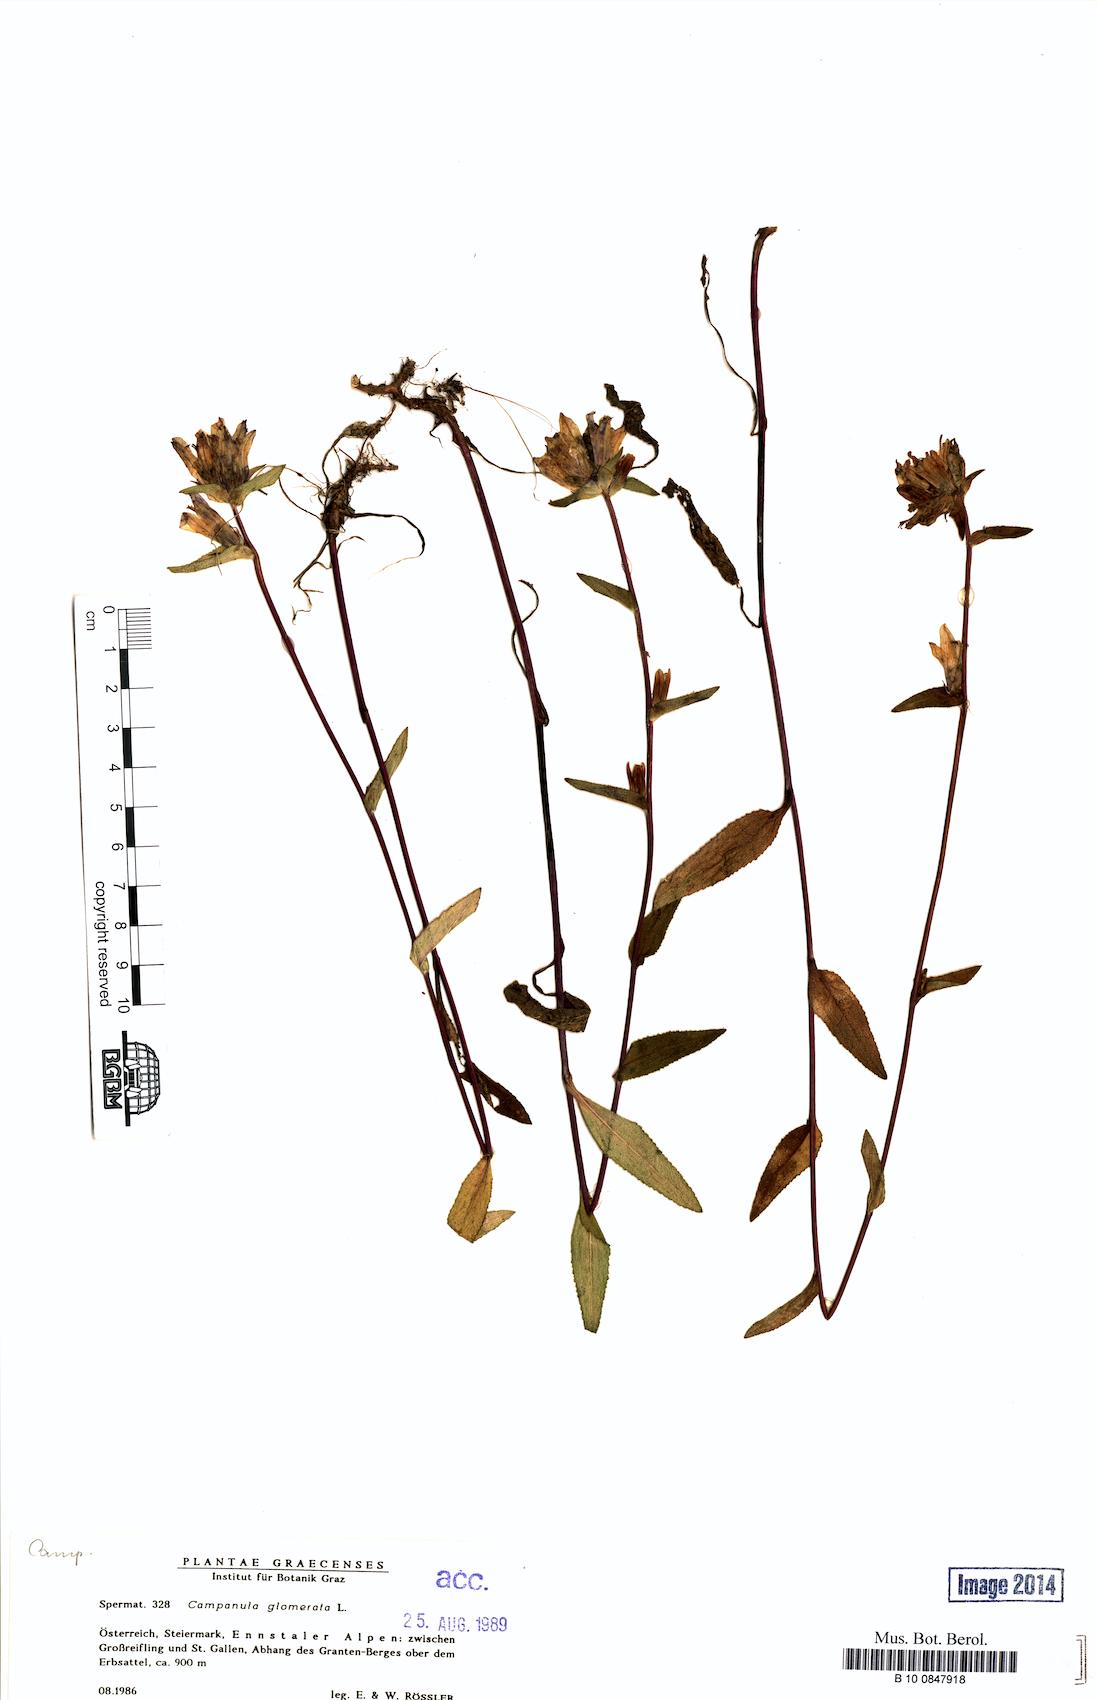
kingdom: Plantae
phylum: Tracheophyta
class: Magnoliopsida
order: Asterales
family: Campanulaceae
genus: Campanula
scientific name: Campanula glomerata
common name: Clustered bellflower
